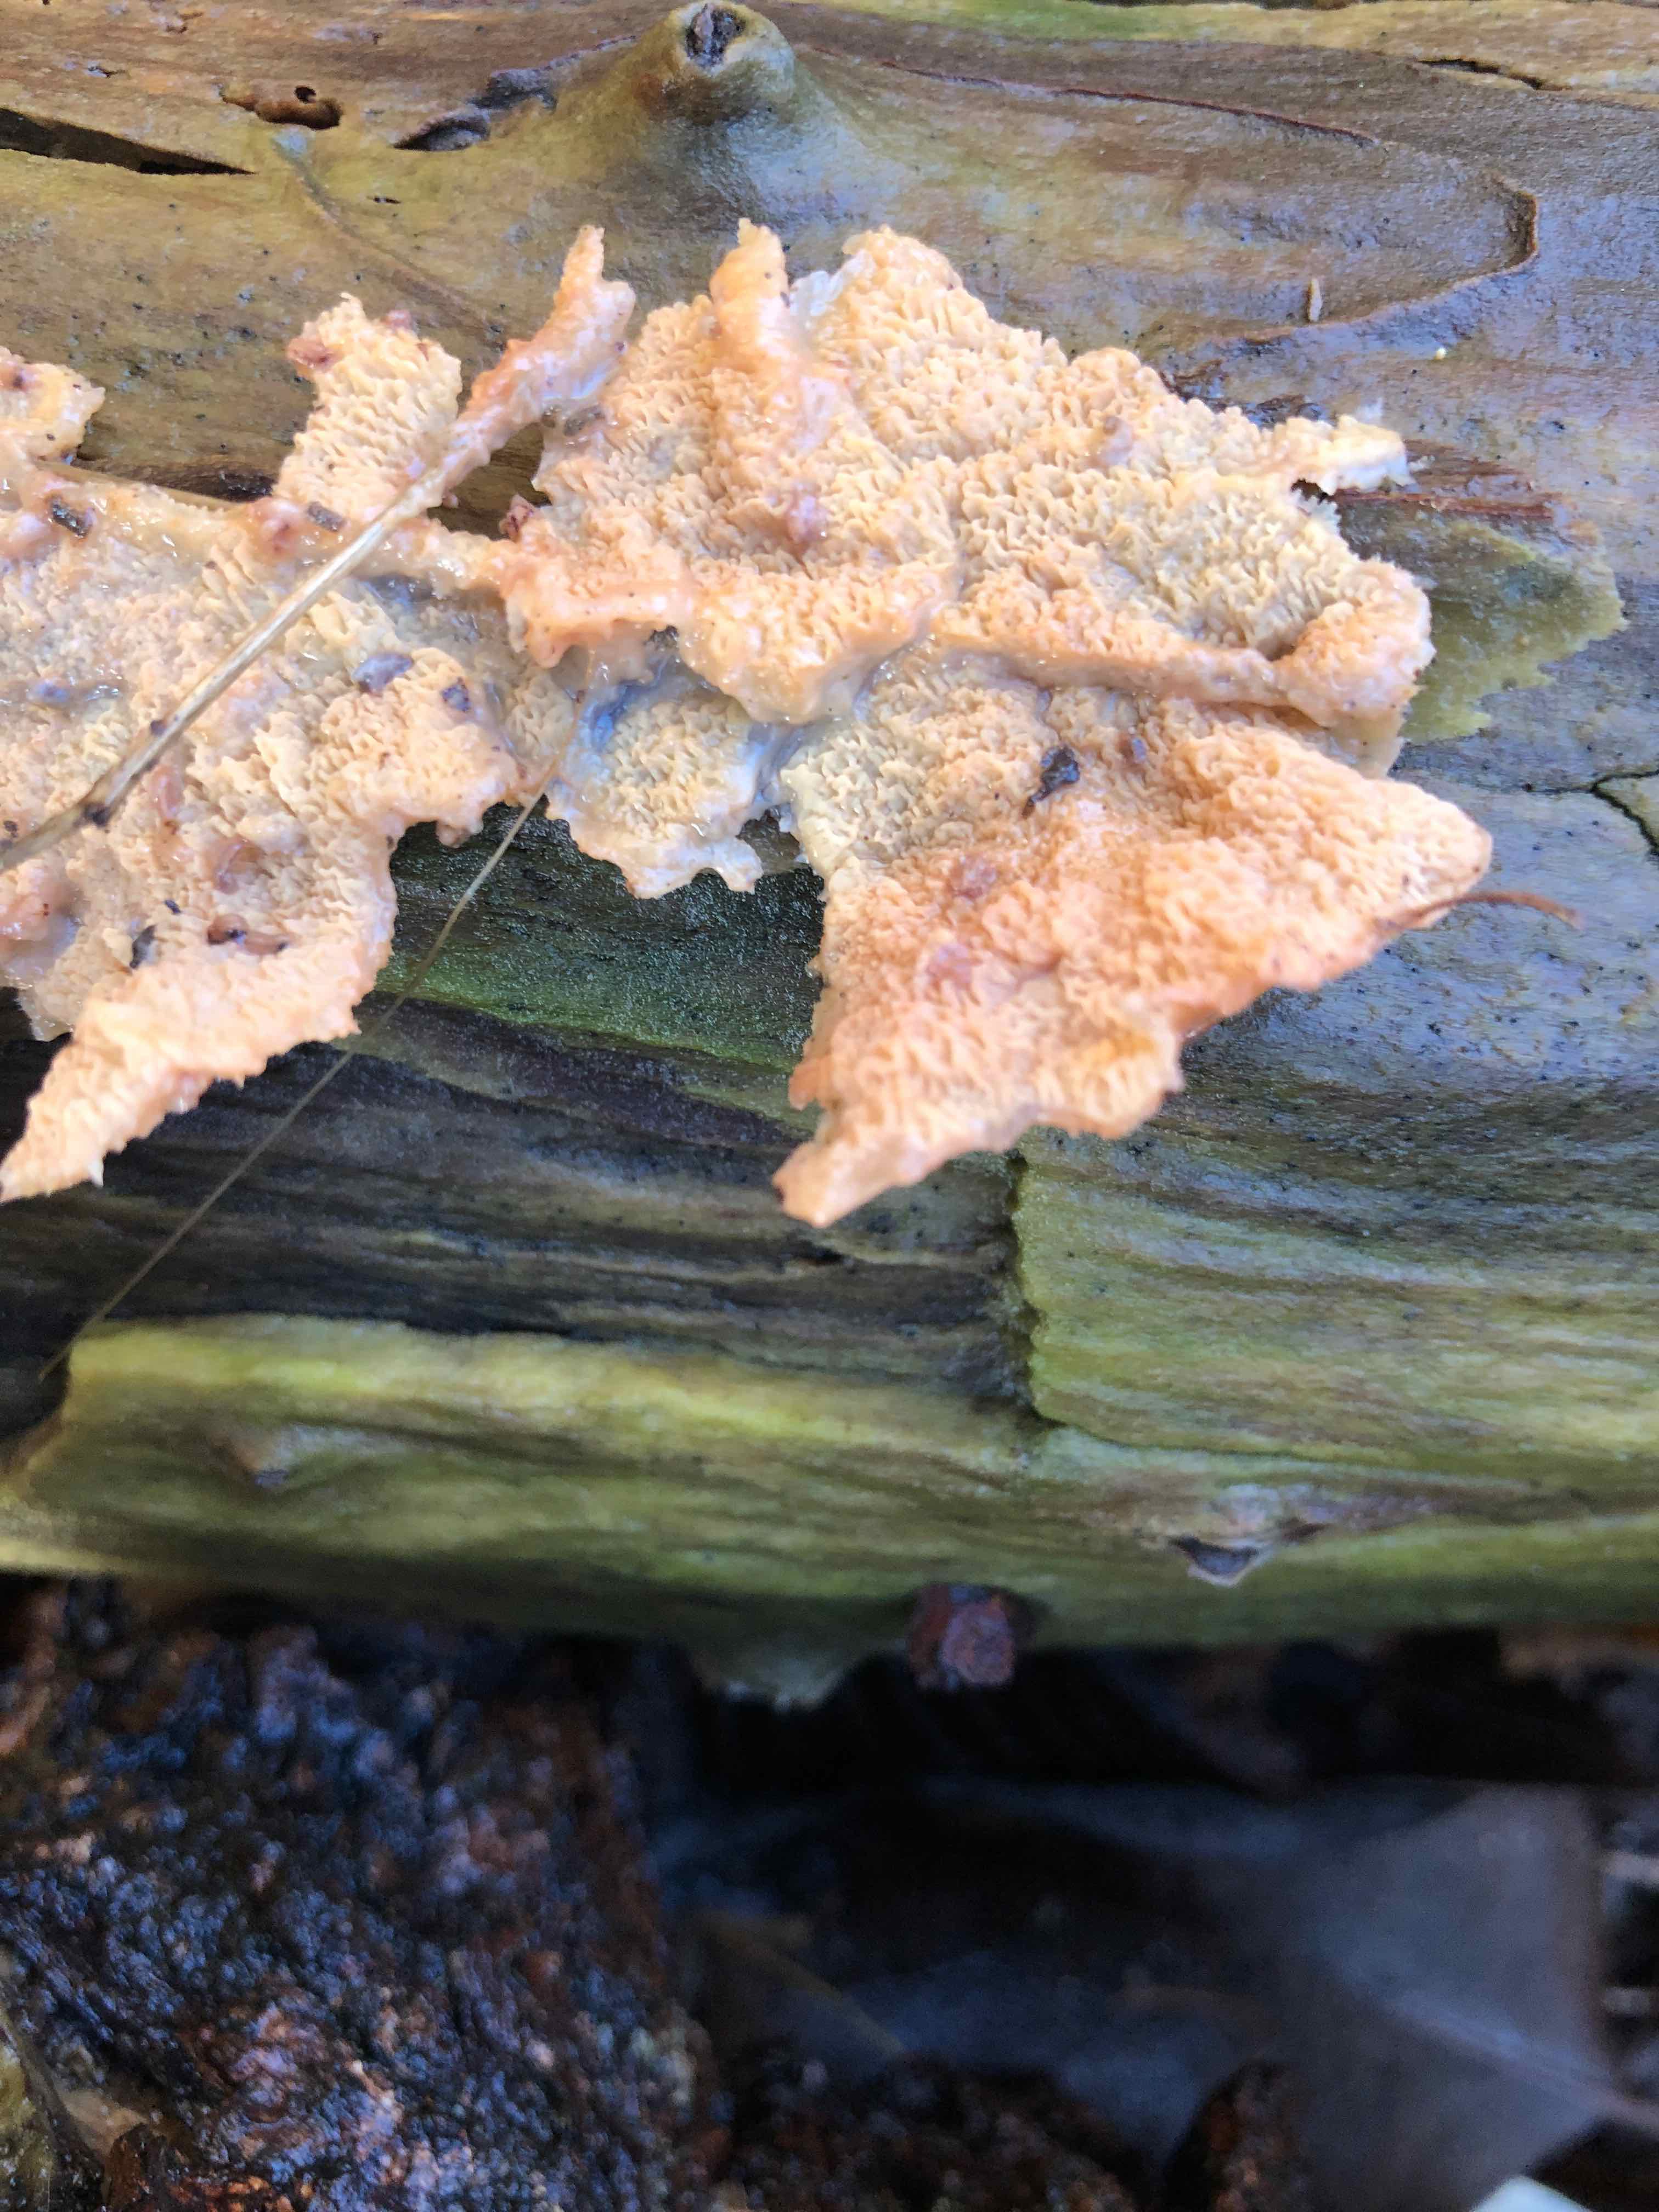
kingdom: Fungi
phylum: Basidiomycota
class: Agaricomycetes
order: Polyporales
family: Meruliaceae
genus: Phlebia
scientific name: Phlebia tremellosa
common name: bævrende åresvamp
